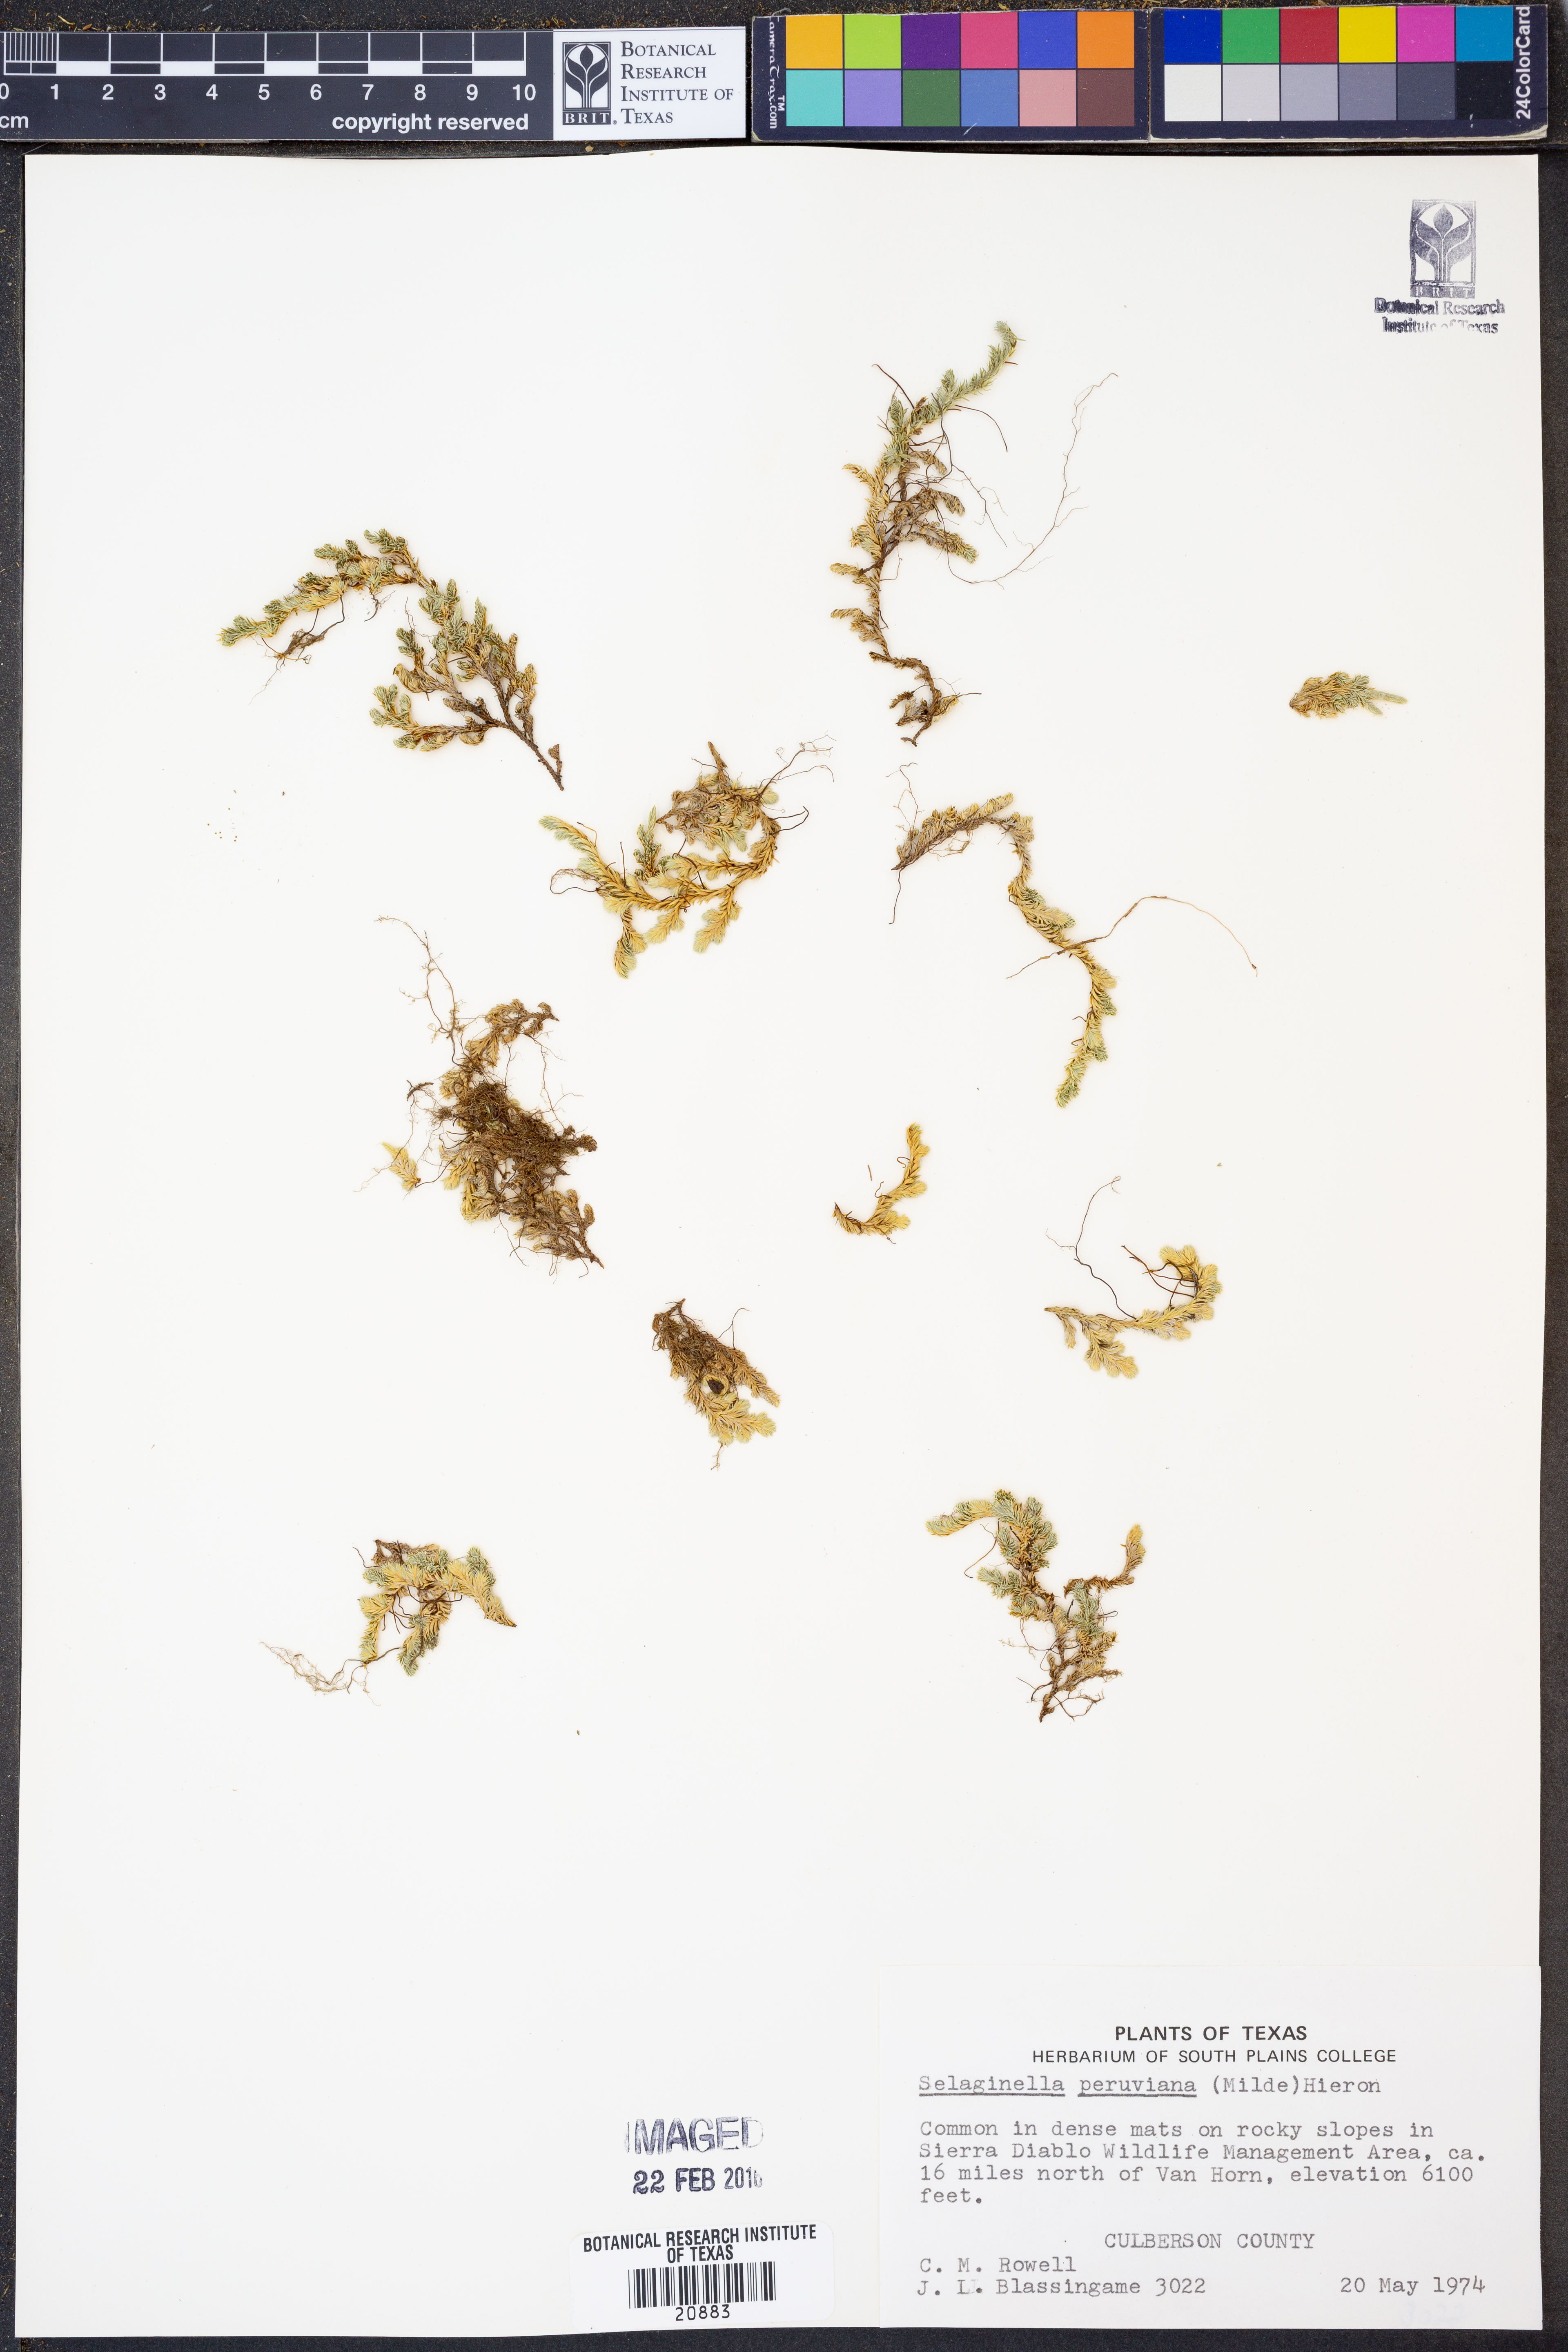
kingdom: Plantae
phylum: Tracheophyta
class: Lycopodiopsida
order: Selaginellales
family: Selaginellaceae
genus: Selaginella
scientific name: Selaginella peruviana
